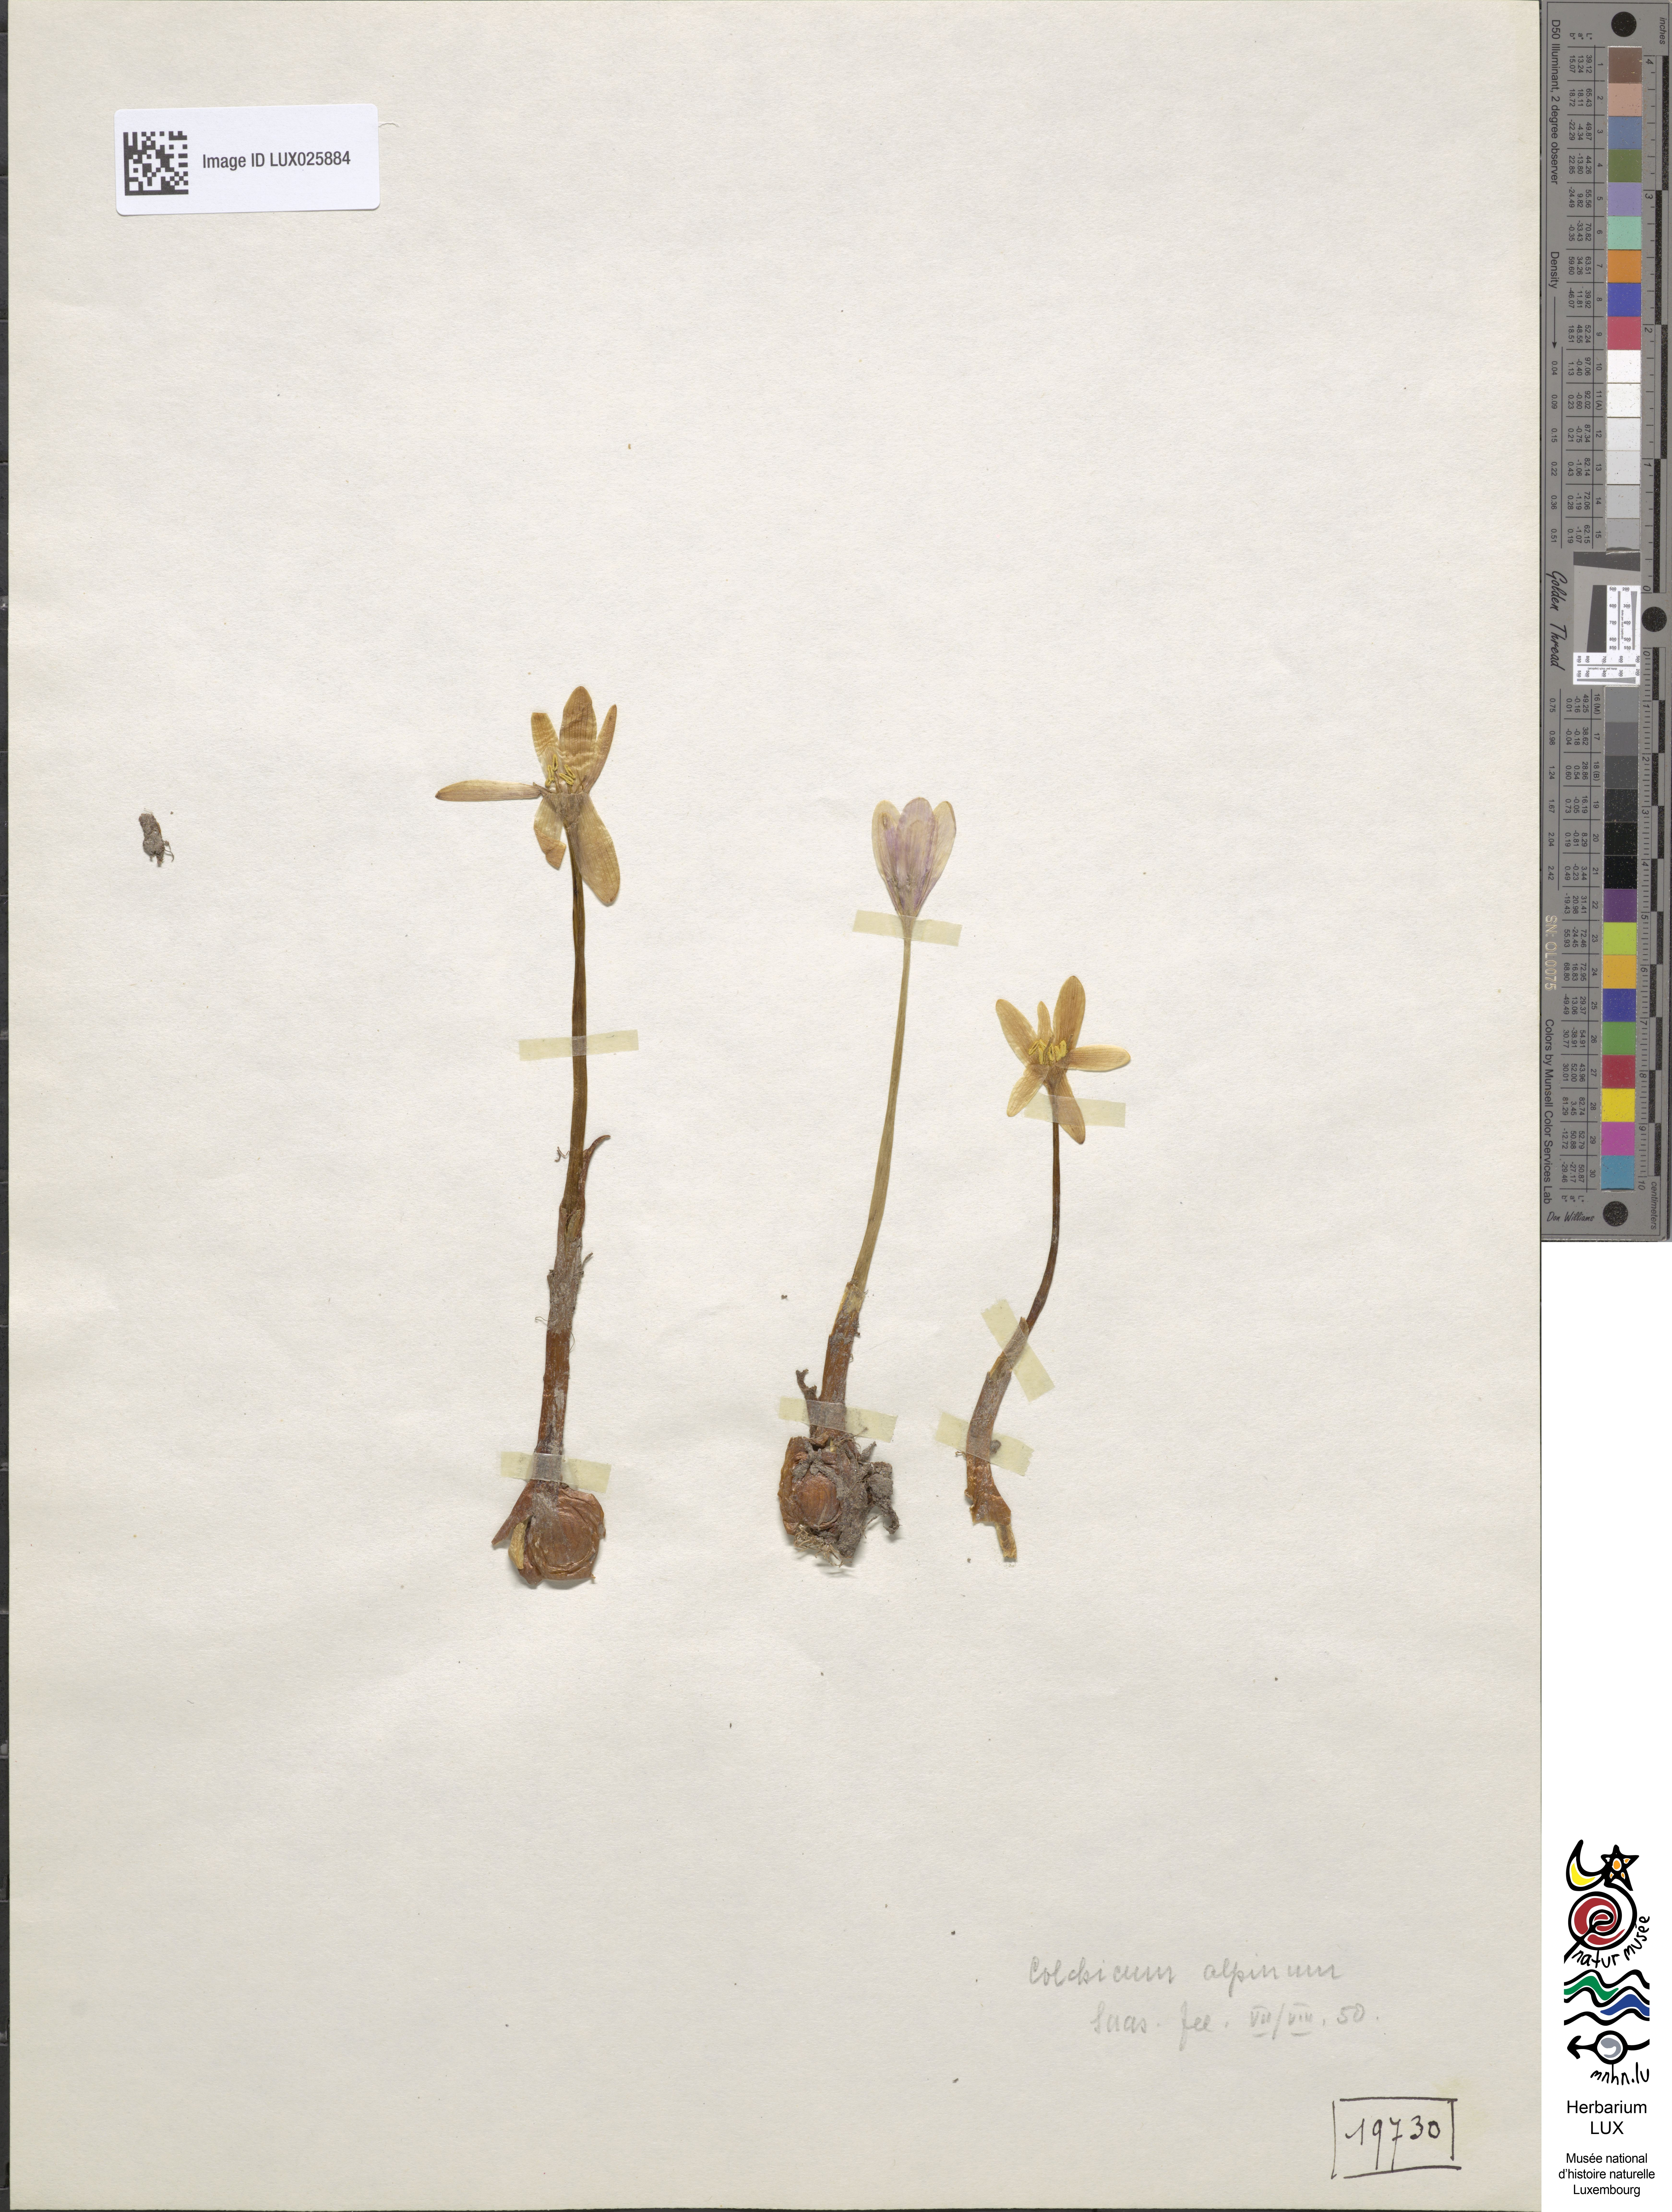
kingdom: Plantae
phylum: Tracheophyta
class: Liliopsida
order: Liliales
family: Colchicaceae
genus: Colchicum
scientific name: Colchicum alpinum
